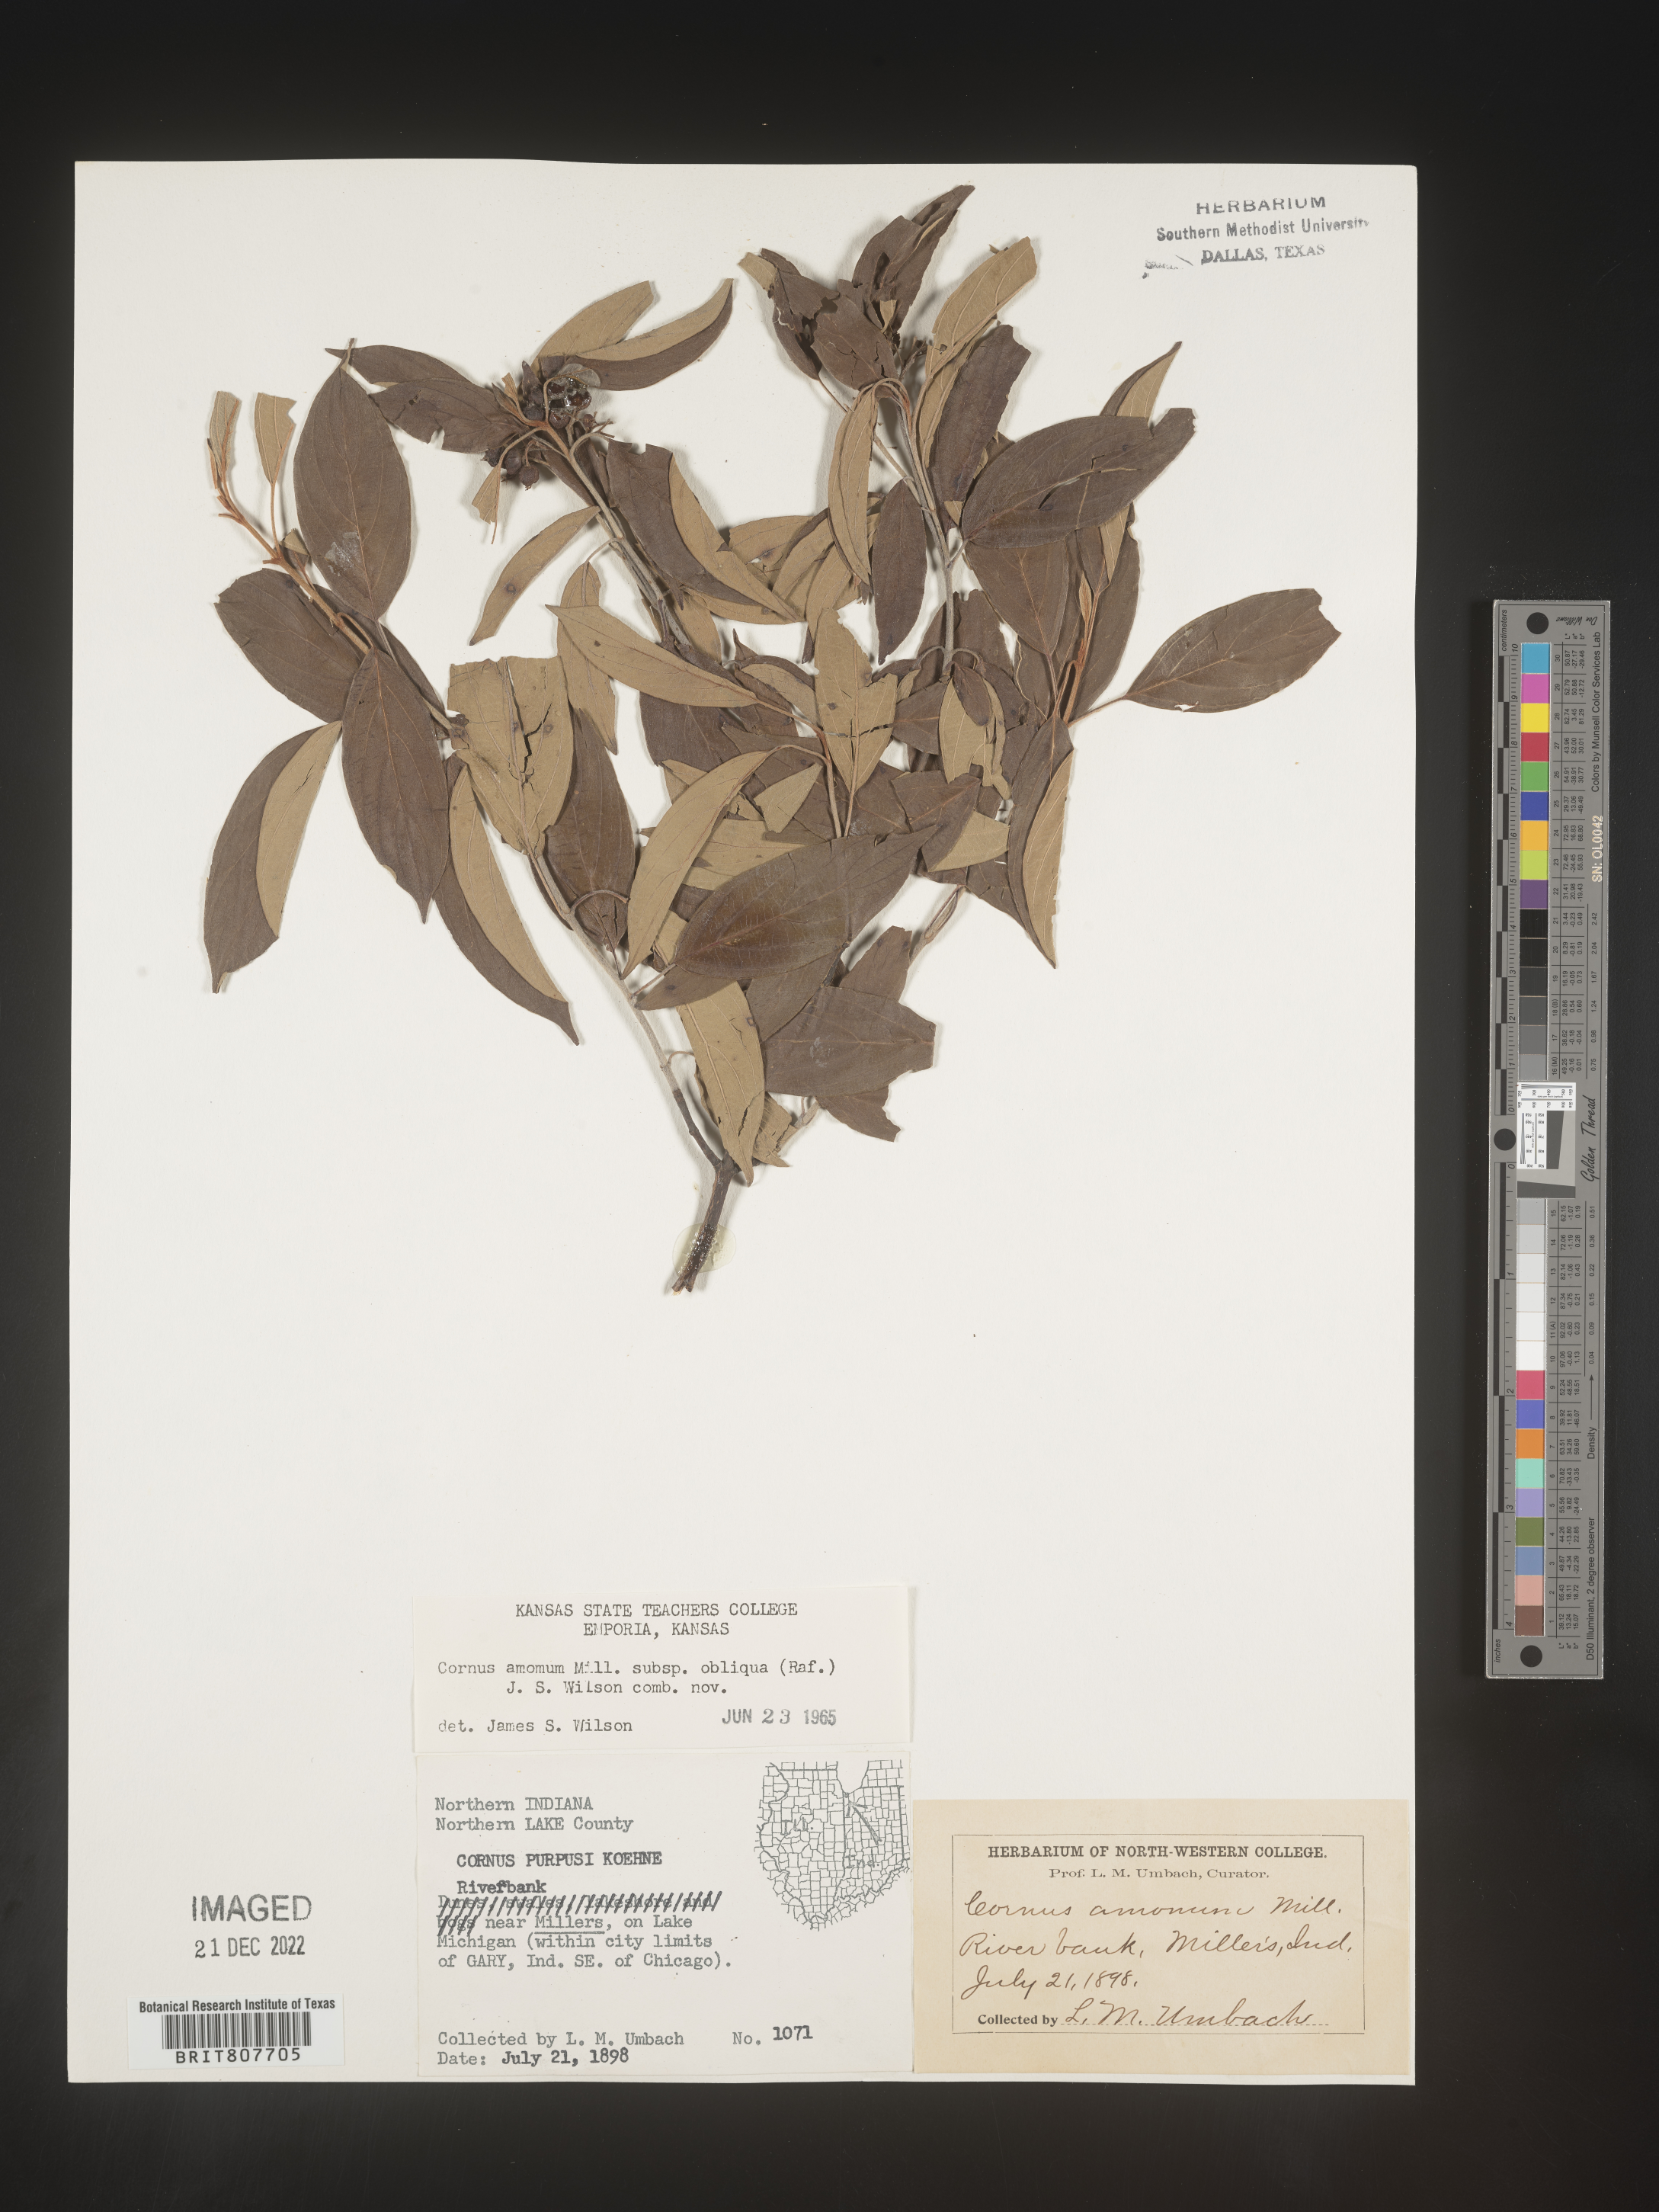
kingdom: Plantae
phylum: Tracheophyta
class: Magnoliopsida
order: Cornales
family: Cornaceae
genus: Cornus
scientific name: Cornus obliqua
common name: Pale dogwood
